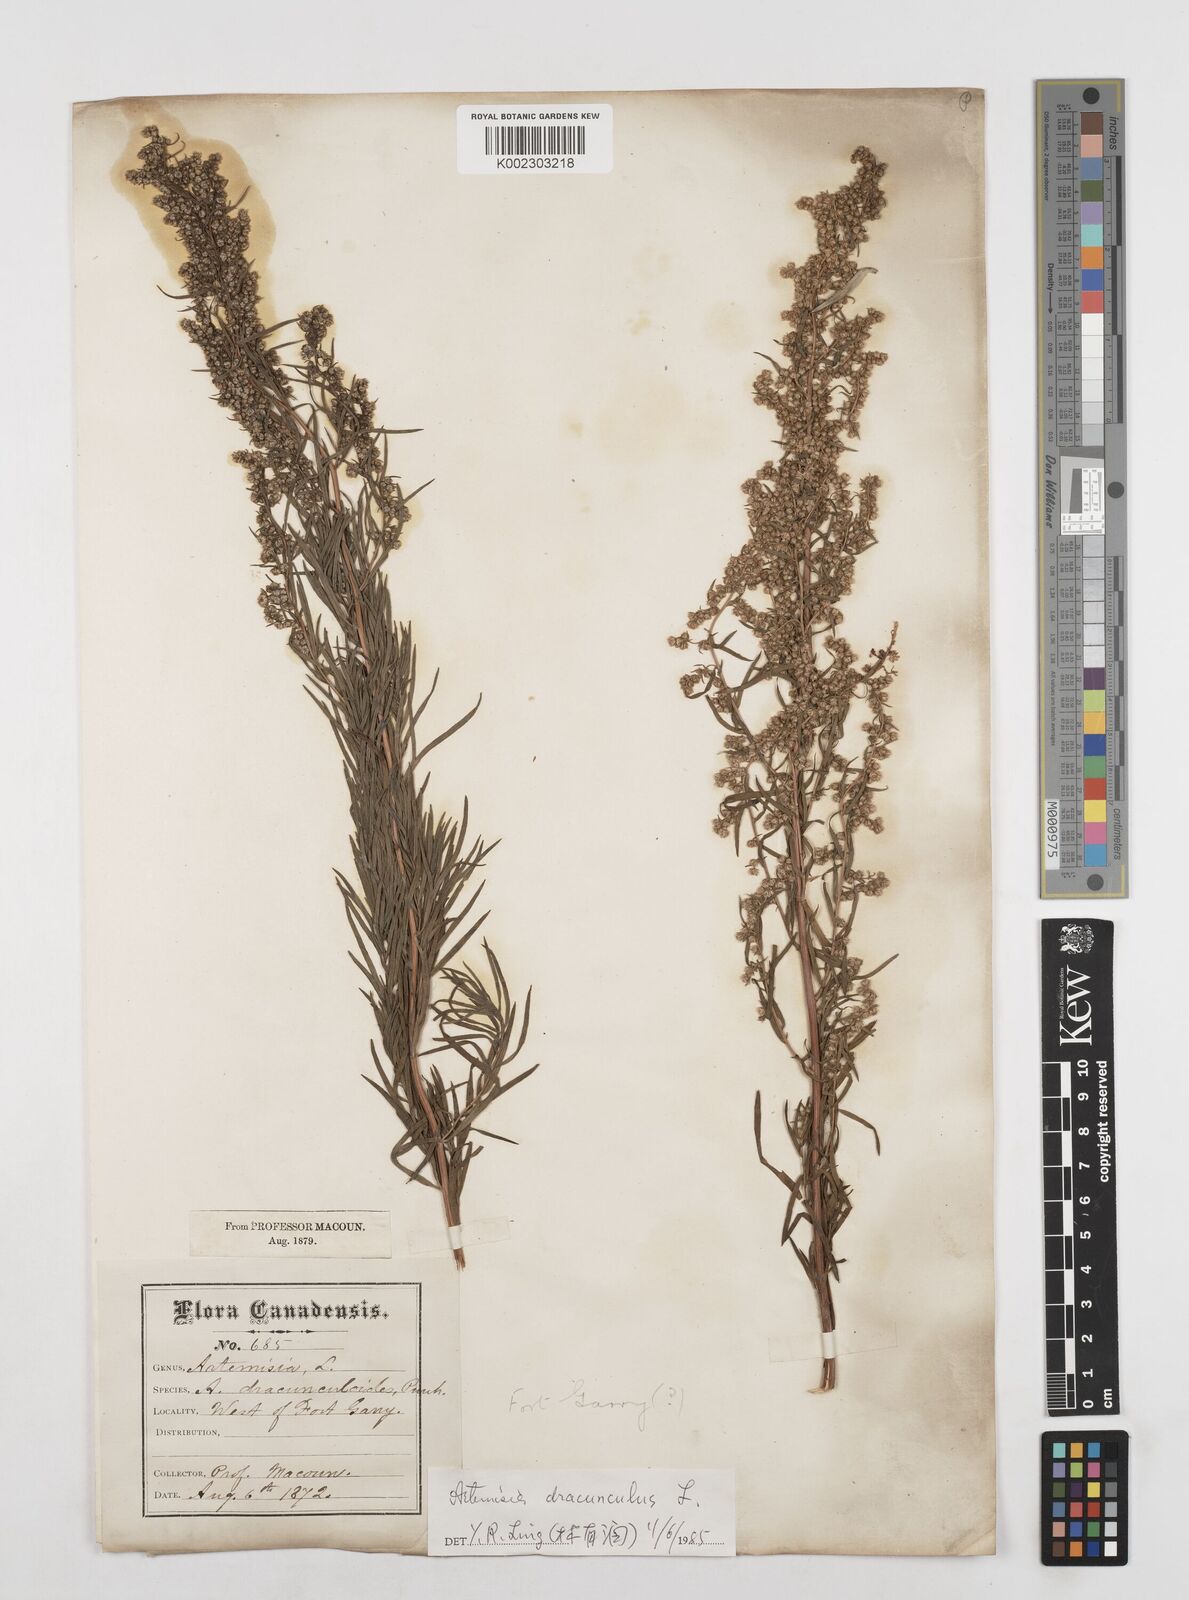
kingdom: Plantae
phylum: Tracheophyta
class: Magnoliopsida
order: Asterales
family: Asteraceae
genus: Artemisia
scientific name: Artemisia dracunculus
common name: Tarragon
